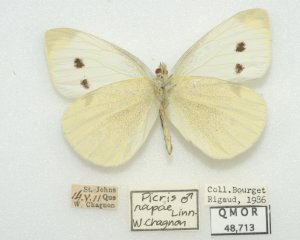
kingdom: Animalia
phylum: Arthropoda
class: Insecta
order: Lepidoptera
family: Pieridae
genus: Pieris
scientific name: Pieris rapae
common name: Cabbage White
